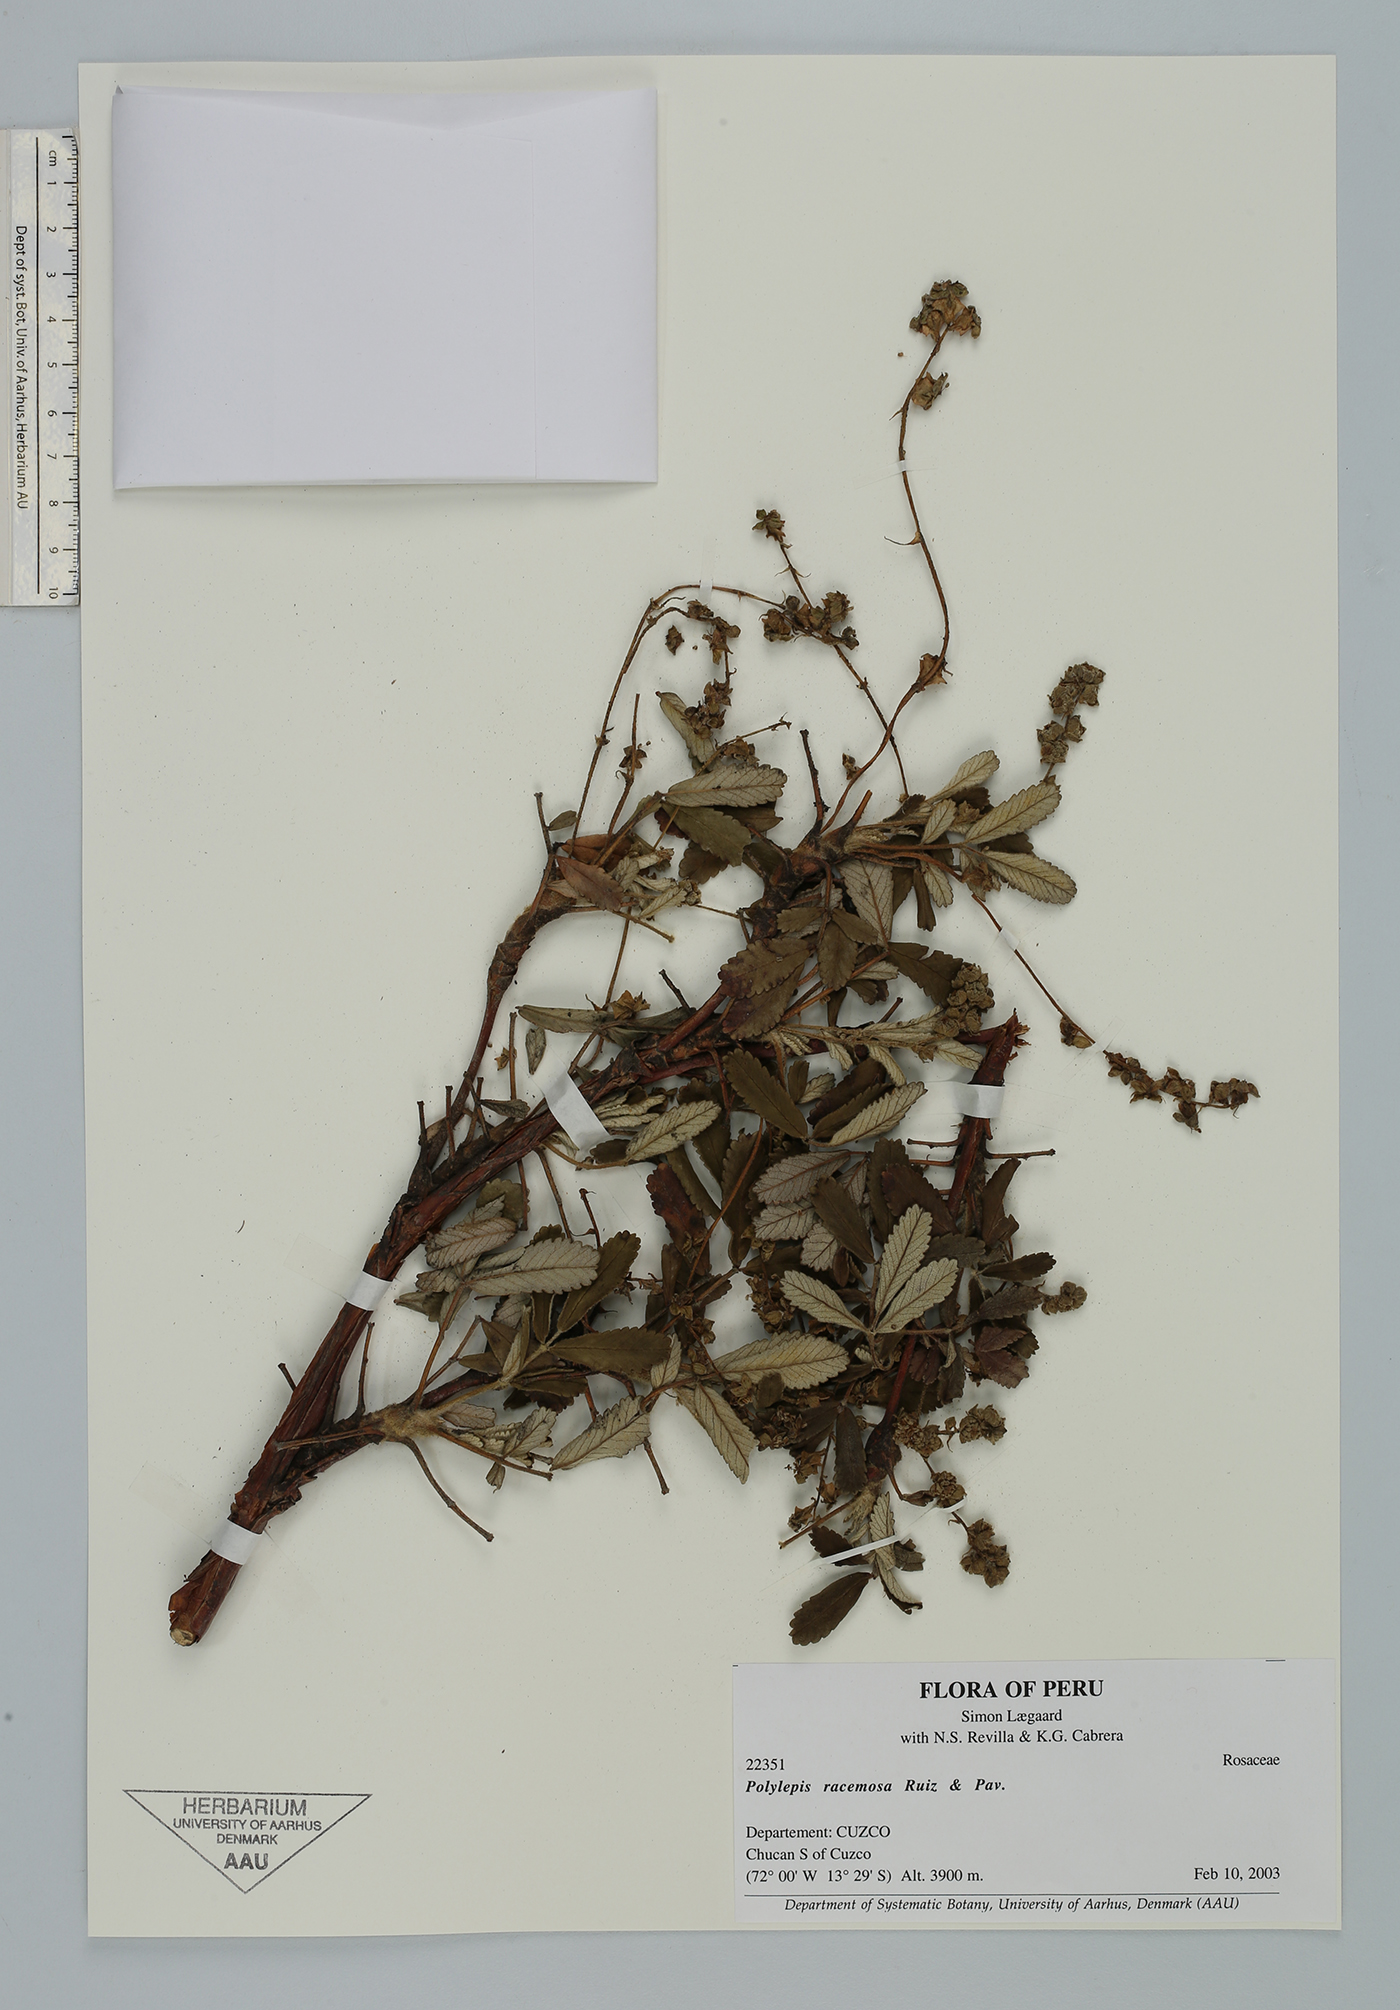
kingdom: Plantae
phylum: Tracheophyta
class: Magnoliopsida
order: Rosales
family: Rosaceae
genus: Polylepis
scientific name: Polylepis racemosa
